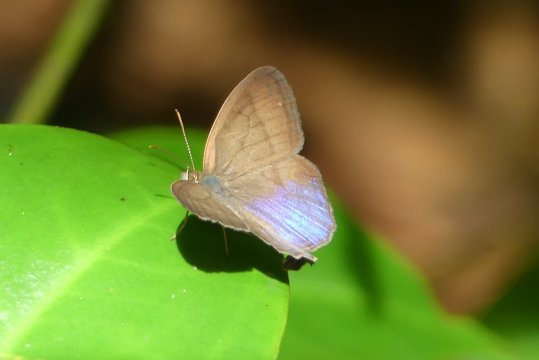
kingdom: Animalia
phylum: Arthropoda
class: Insecta
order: Lepidoptera
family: Nymphalidae
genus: Chloreuptychia
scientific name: Chloreuptychia arnaca
